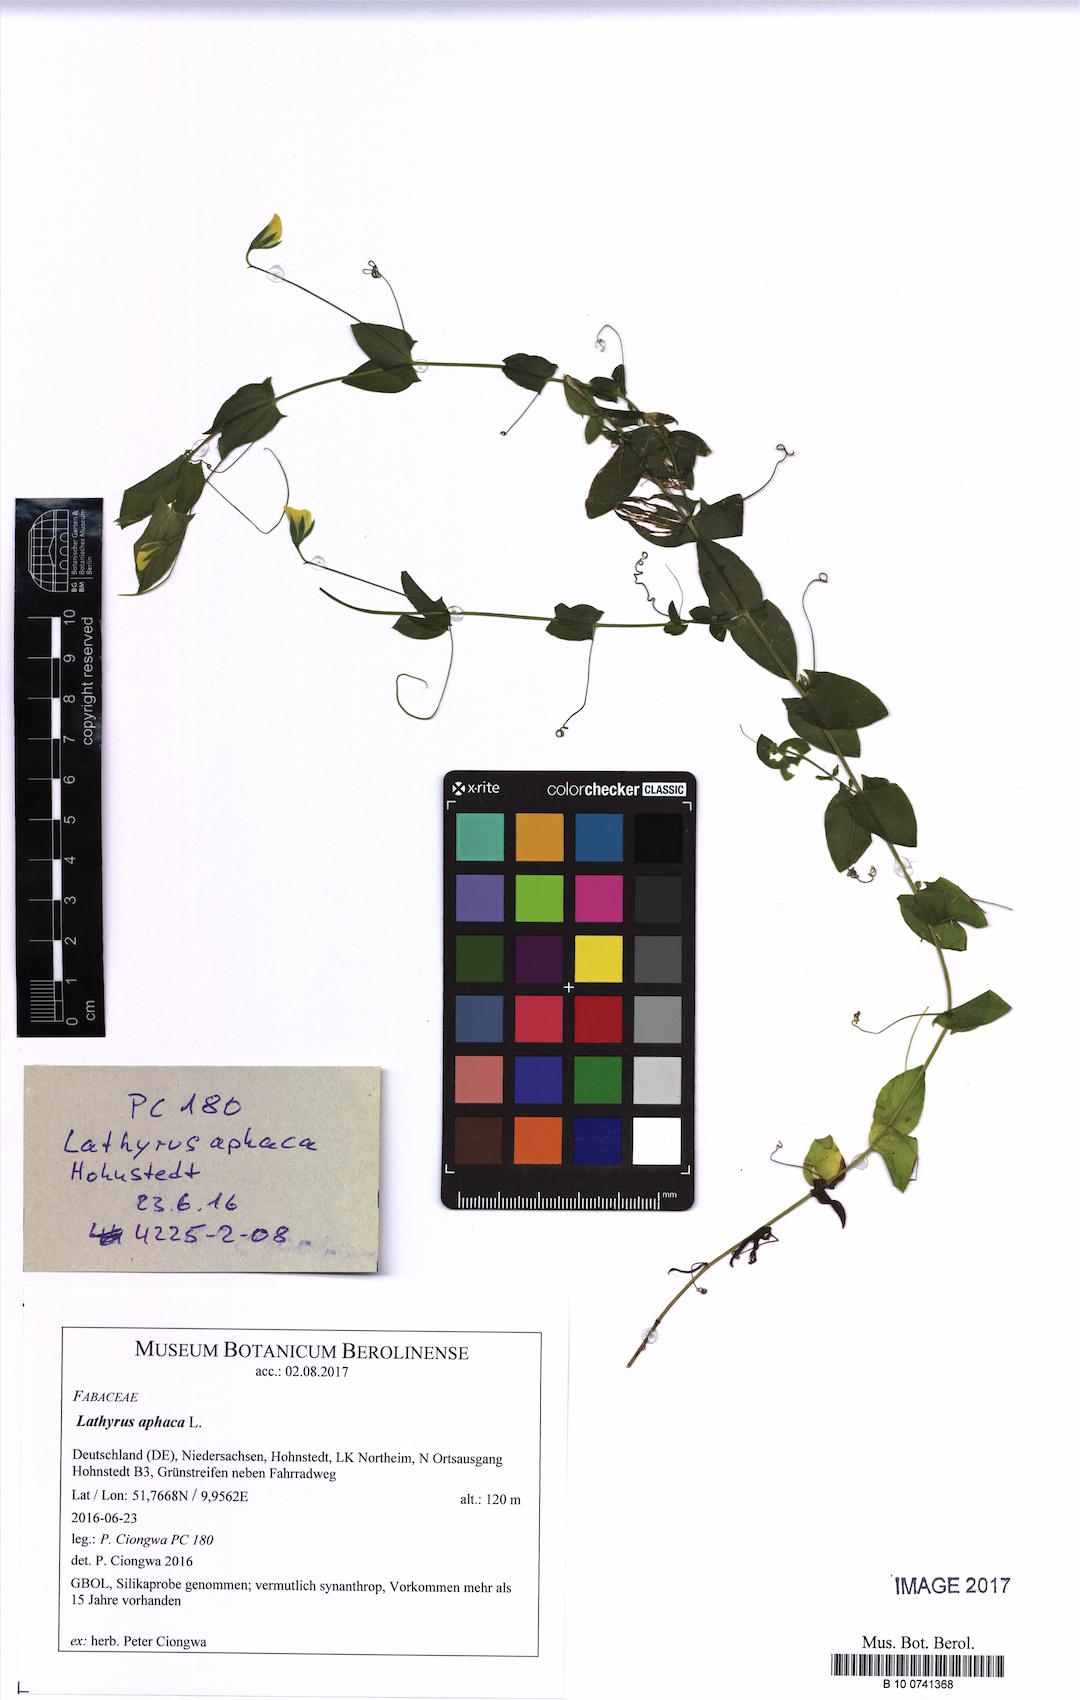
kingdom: Plantae
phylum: Tracheophyta
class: Magnoliopsida
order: Fabales
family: Fabaceae
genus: Lathyrus
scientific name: Lathyrus aphaca
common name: Yellow vetchling
